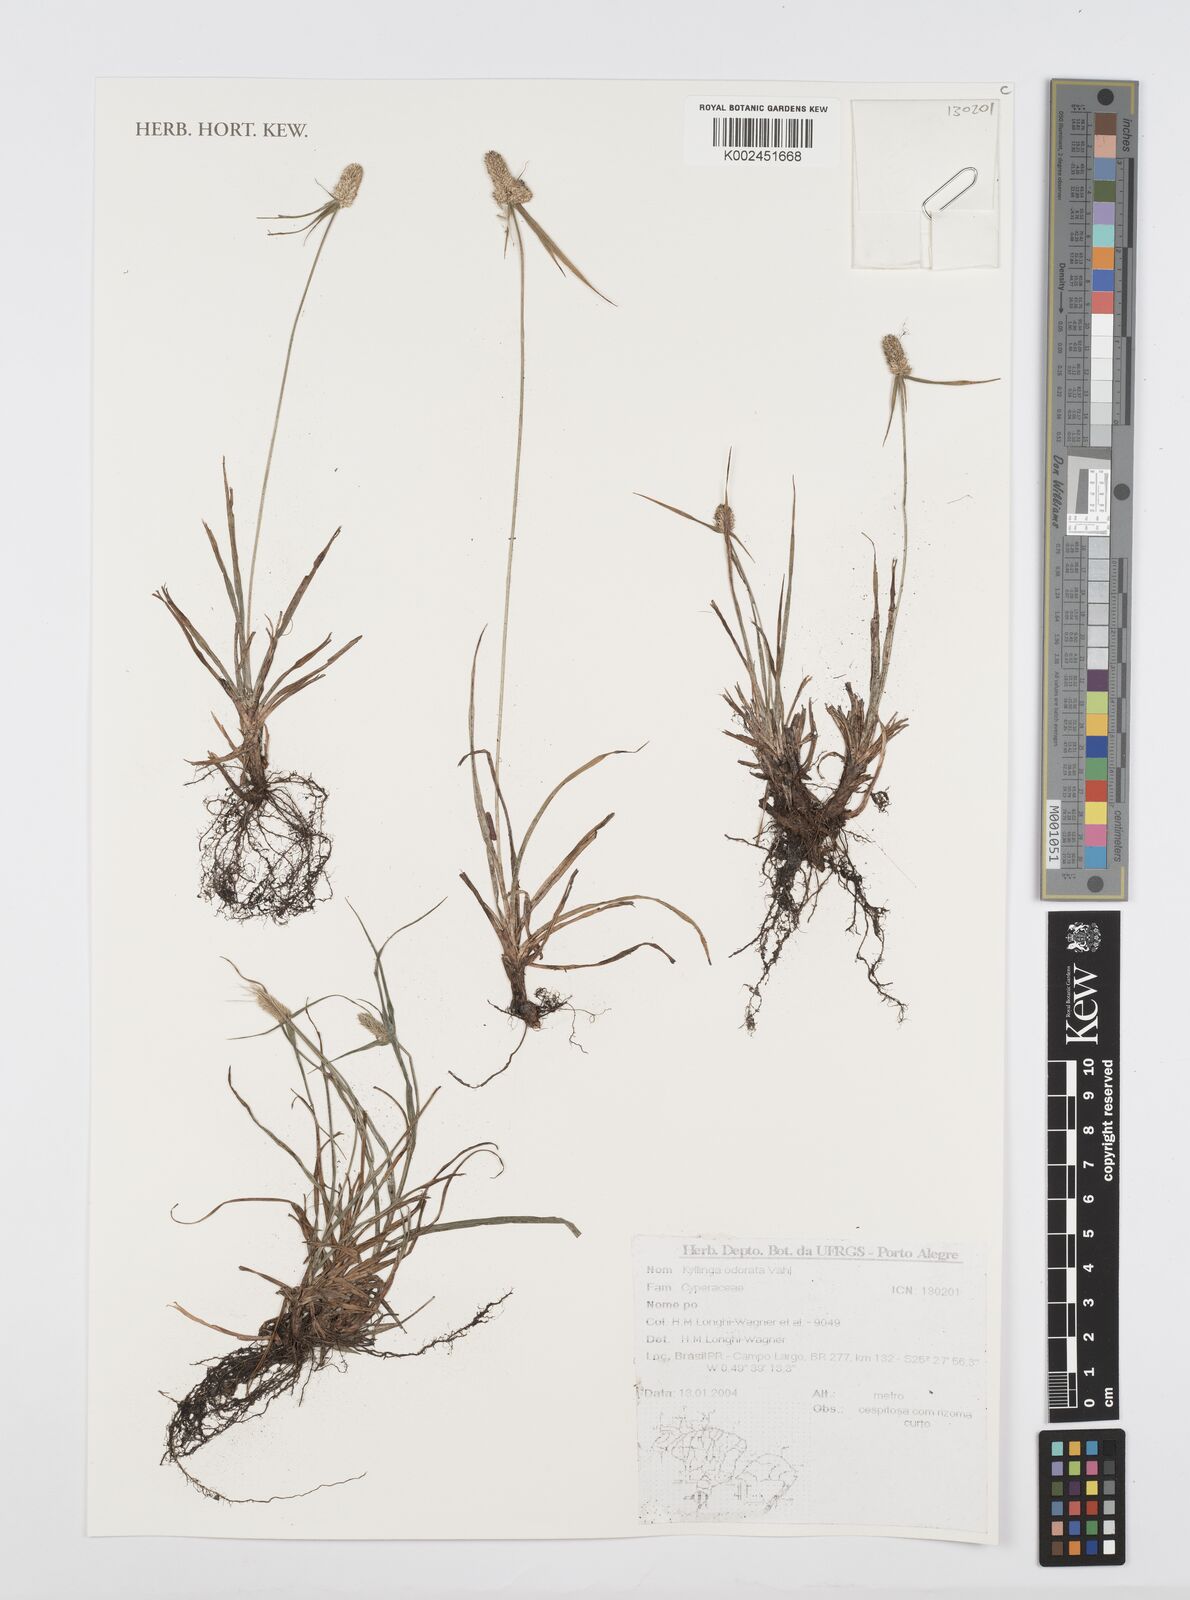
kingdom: Plantae
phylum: Tracheophyta
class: Liliopsida
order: Poales
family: Cyperaceae
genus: Cyperus
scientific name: Cyperus
